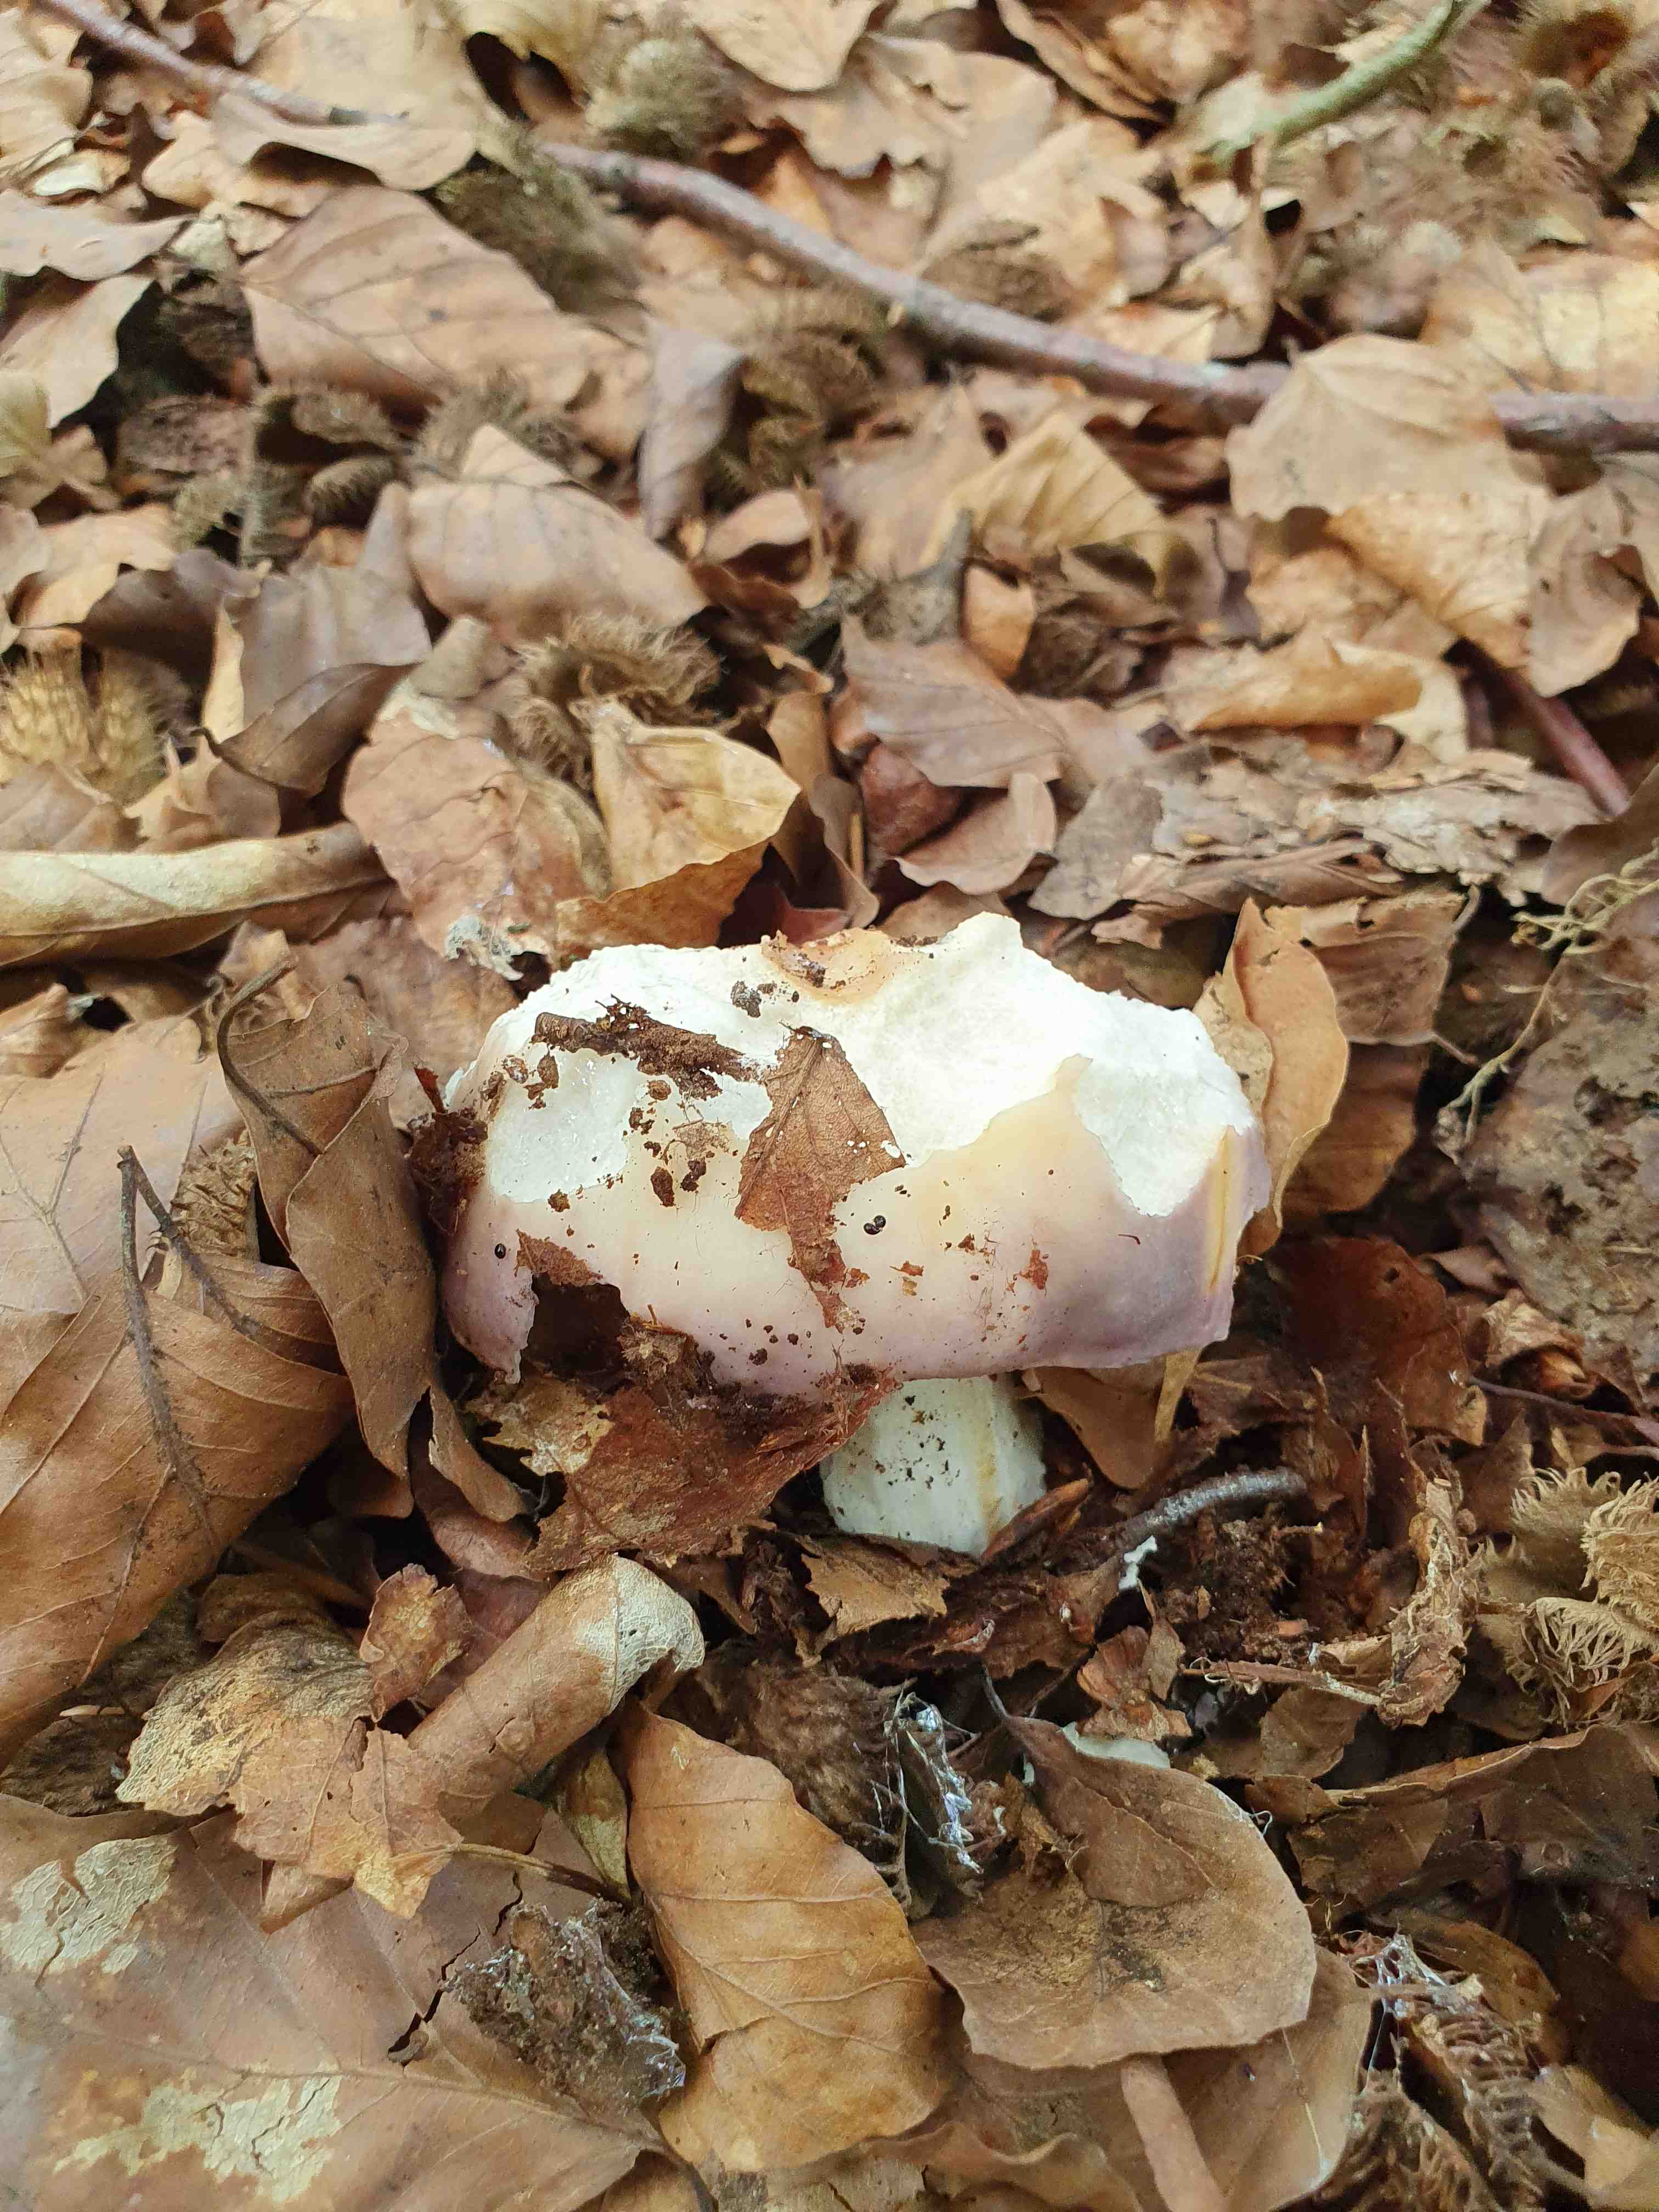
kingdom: Fungi
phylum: Basidiomycota
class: Agaricomycetes
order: Russulales
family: Russulaceae
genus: Russula
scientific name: Russula cyanoxantha
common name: broget skørhat
